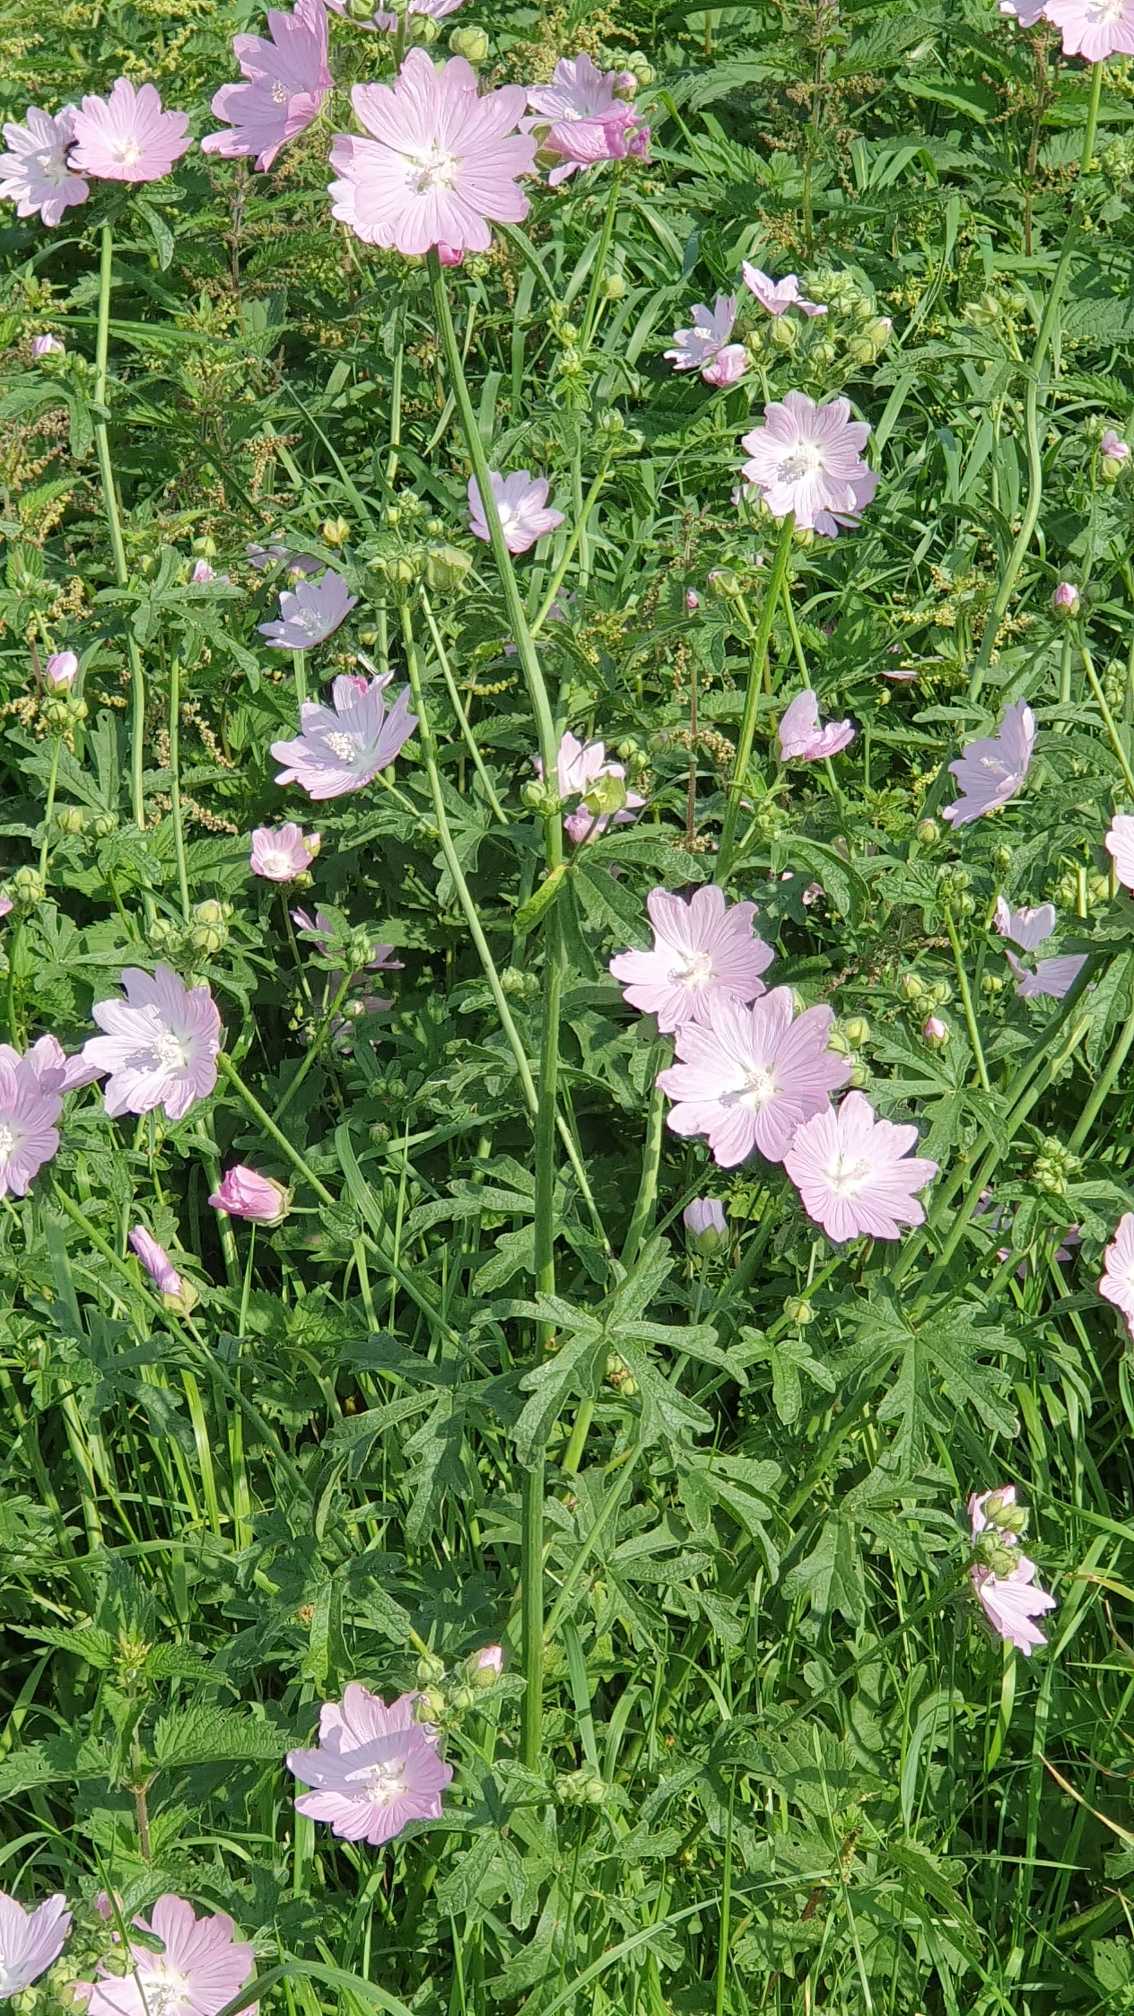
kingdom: Plantae
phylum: Tracheophyta
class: Magnoliopsida
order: Malvales
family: Malvaceae
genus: Malva
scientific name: Malva alcea
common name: Rosen-katost
